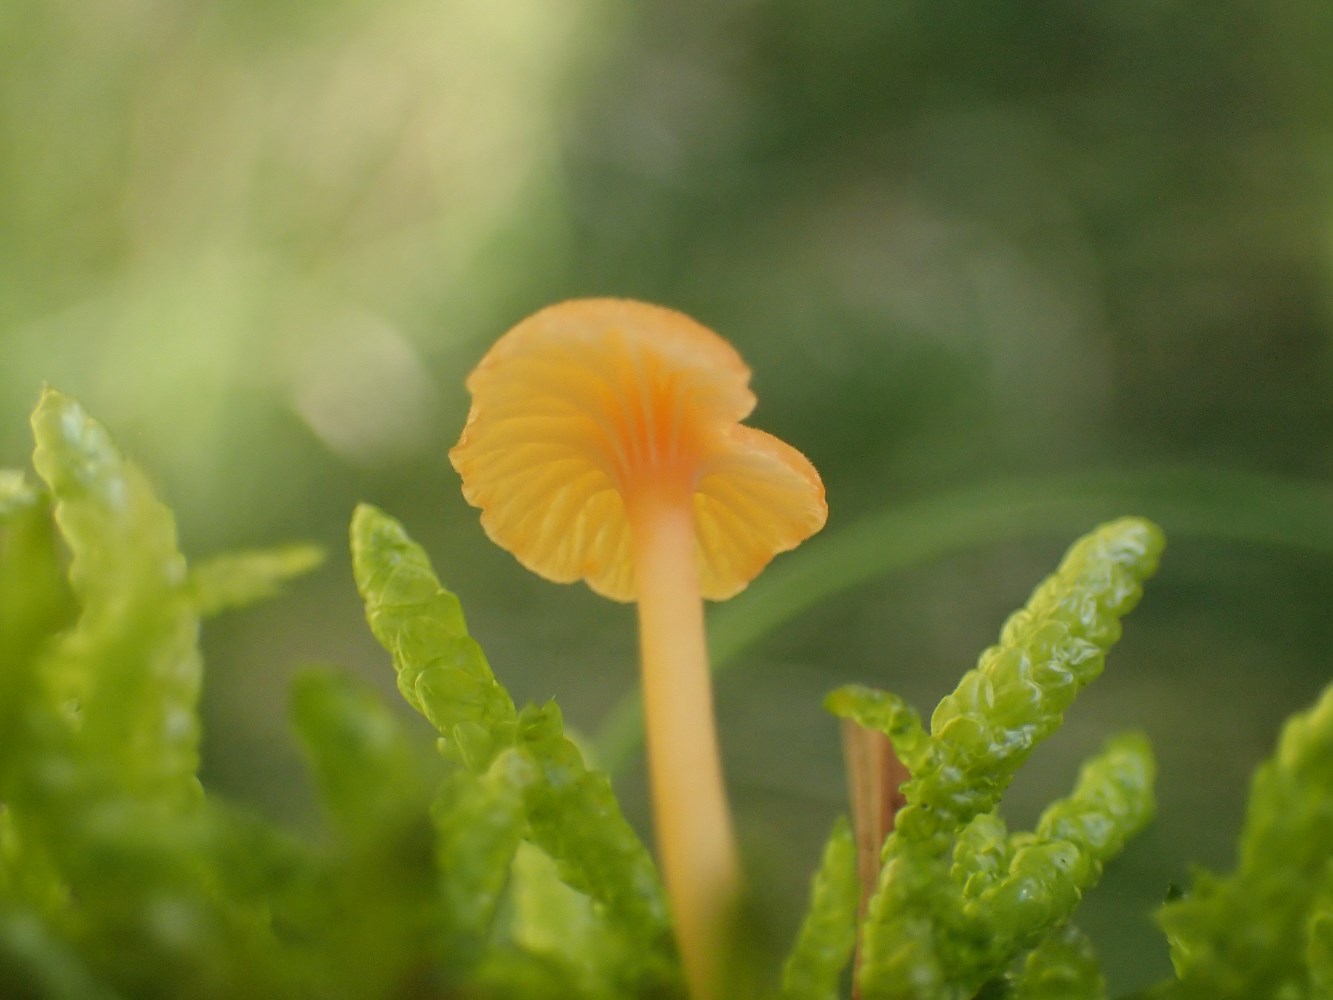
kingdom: Fungi
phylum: Basidiomycota
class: Agaricomycetes
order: Hymenochaetales
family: Rickenellaceae
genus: Rickenella
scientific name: Rickenella fibula
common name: orange mosnavlehat
